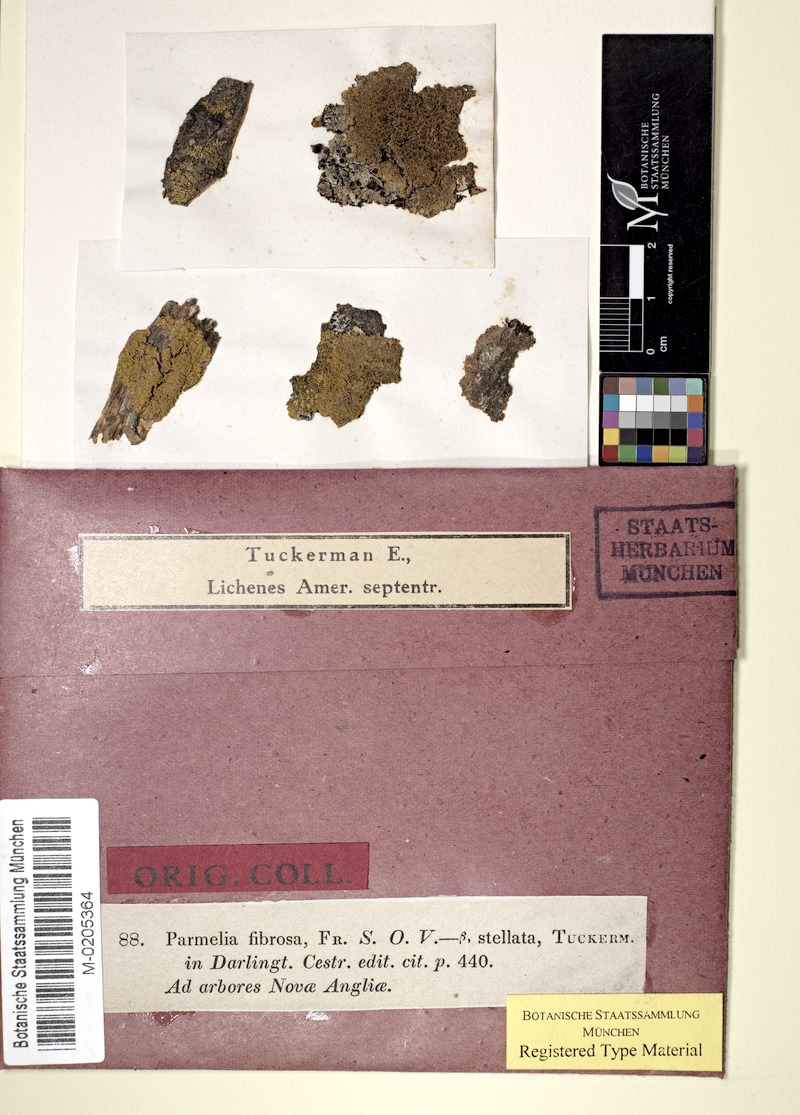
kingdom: Fungi
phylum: Ascomycota
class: Candelariomycetes
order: Candelariales
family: Candelariaceae
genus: Candelaria
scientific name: Candelaria fibrosa
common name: Fringed candleflame lichen
